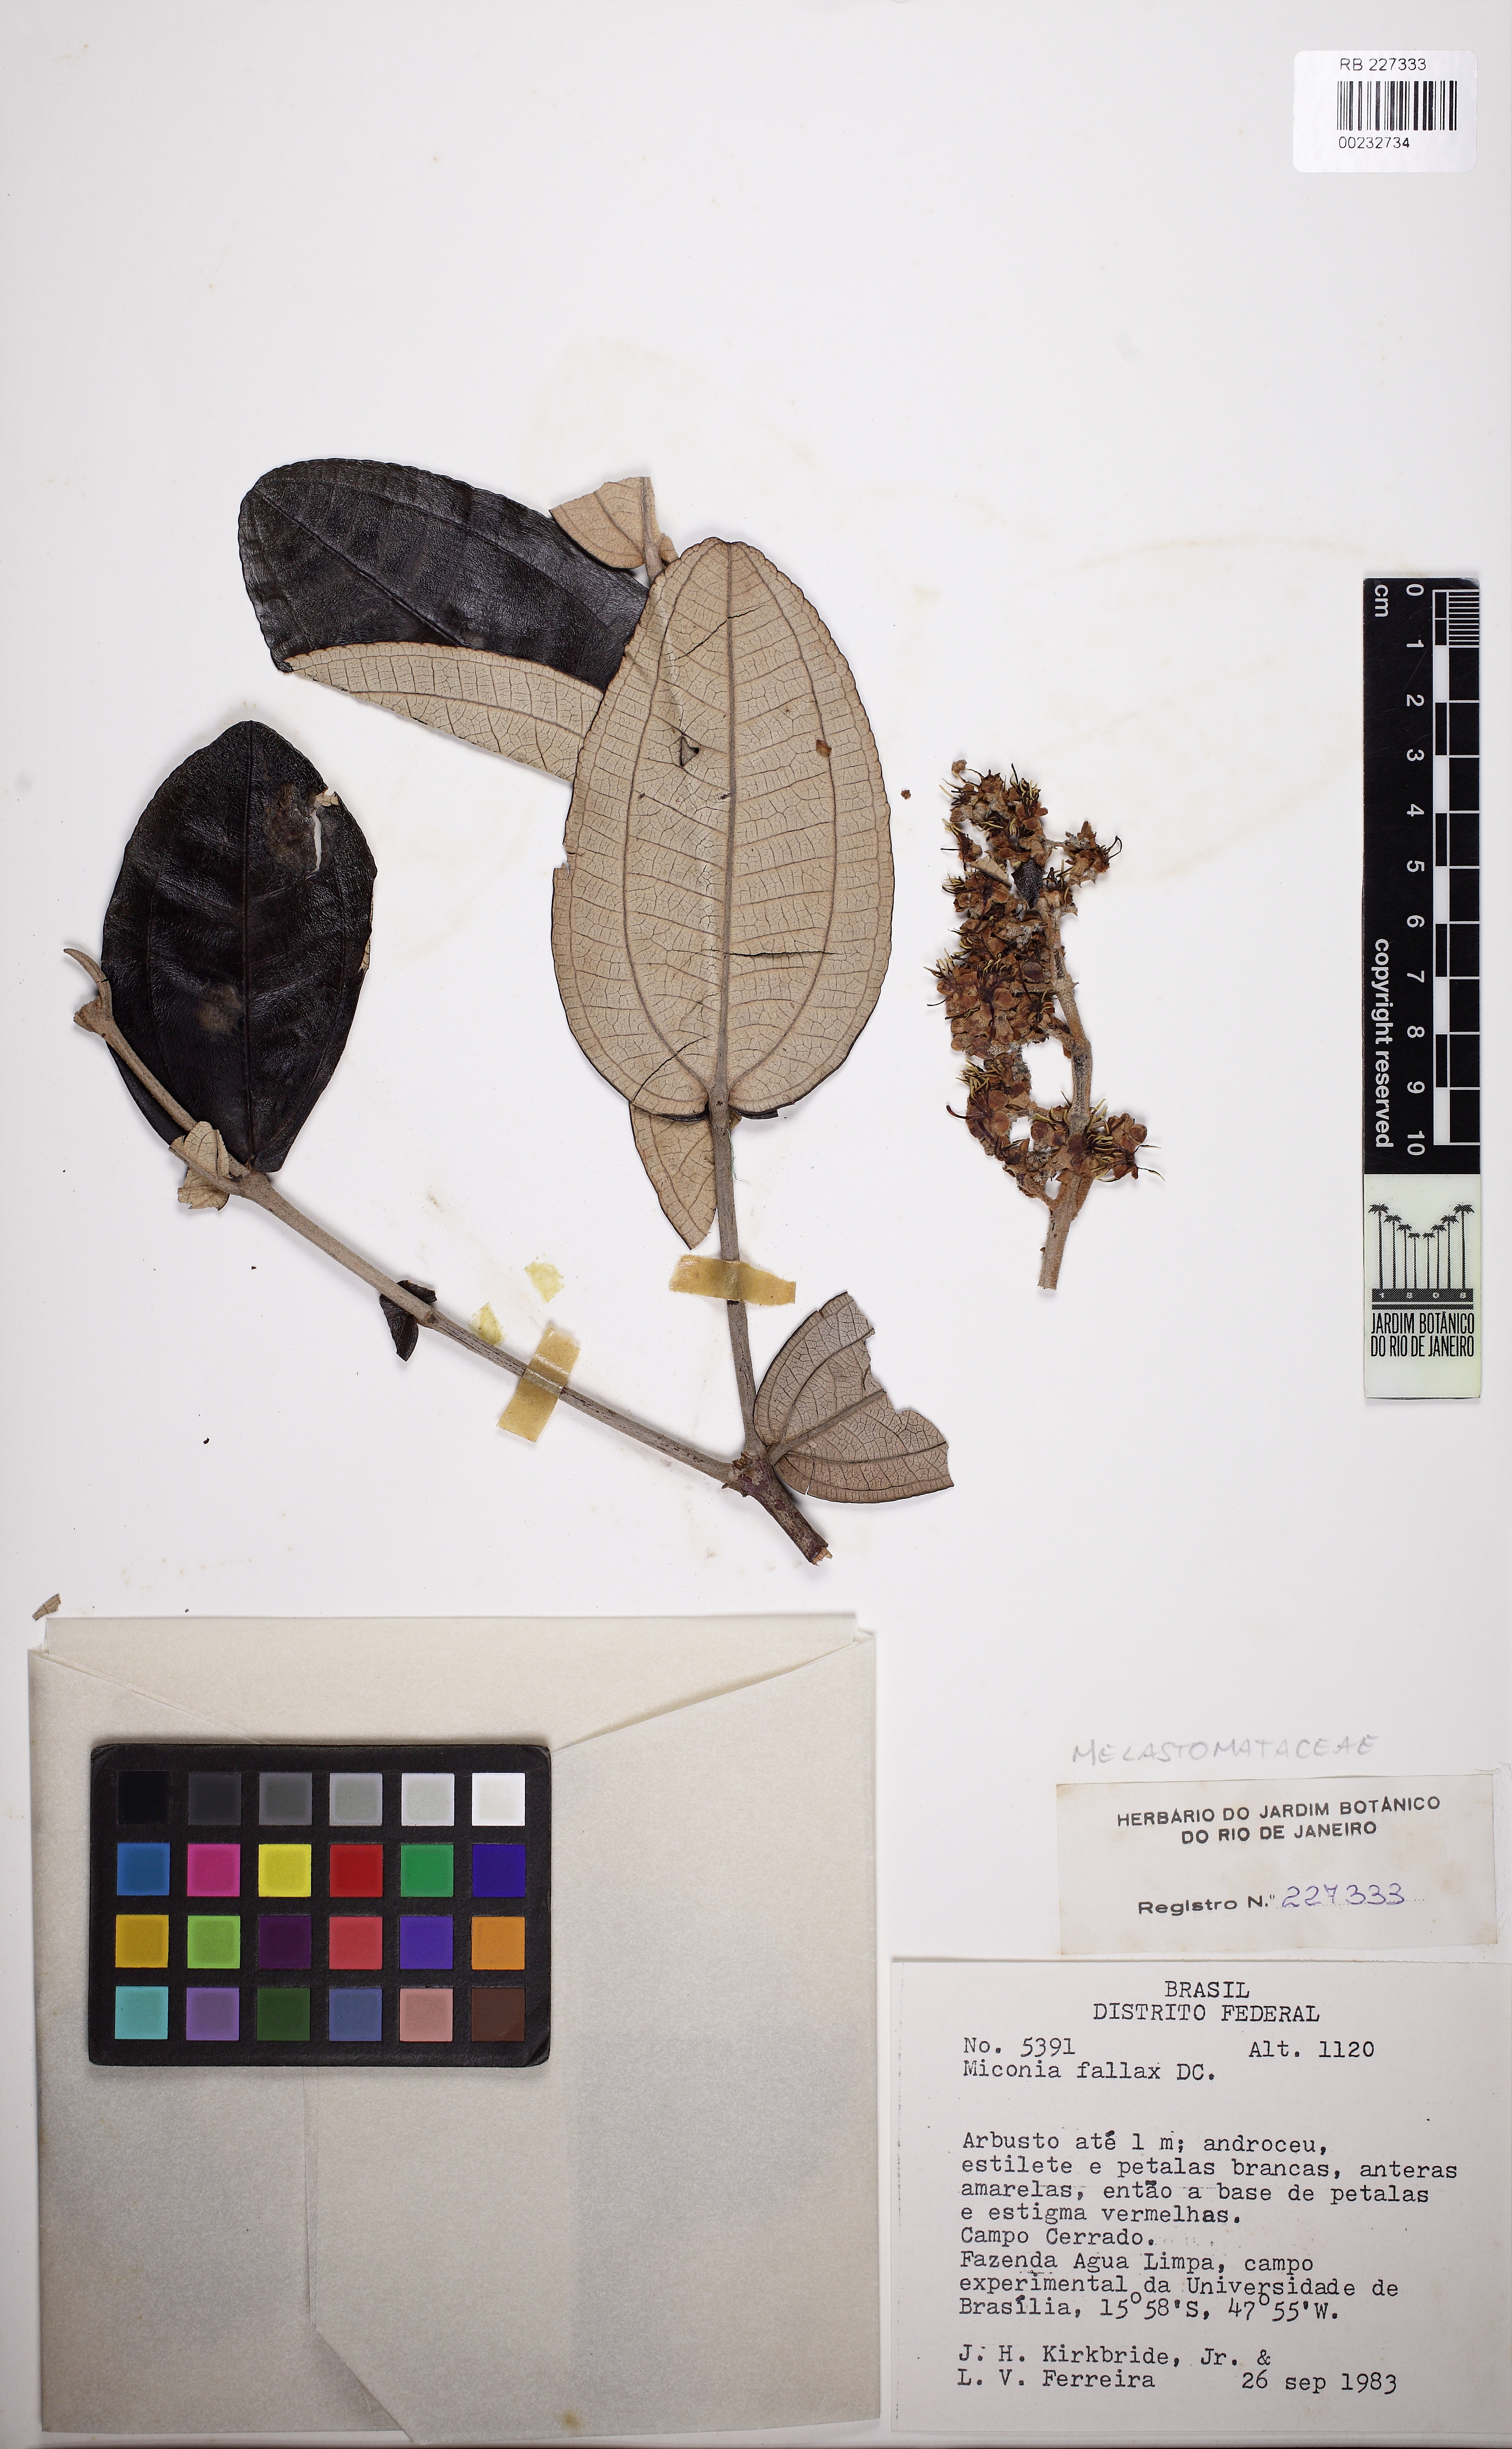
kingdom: Plantae
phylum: Tracheophyta
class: Magnoliopsida
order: Myrtales
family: Melastomataceae
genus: Miconia
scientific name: Miconia fallax
